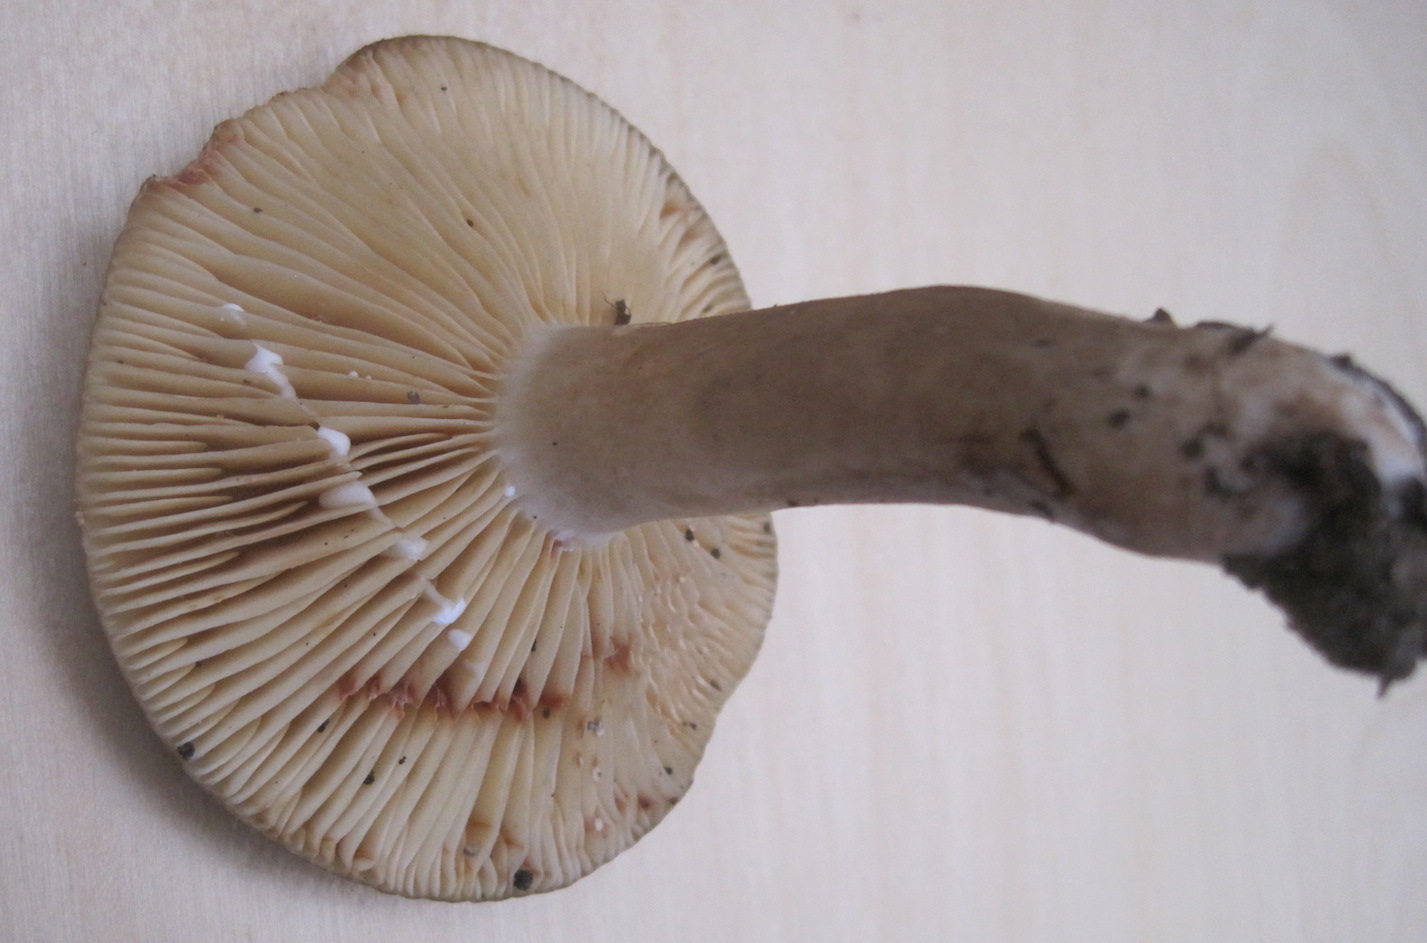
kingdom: Fungi
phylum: Basidiomycota
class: Agaricomycetes
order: Russulales
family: Russulaceae
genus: Lactarius
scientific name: Lactarius romagnesii
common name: fjernbladet mælkehat
